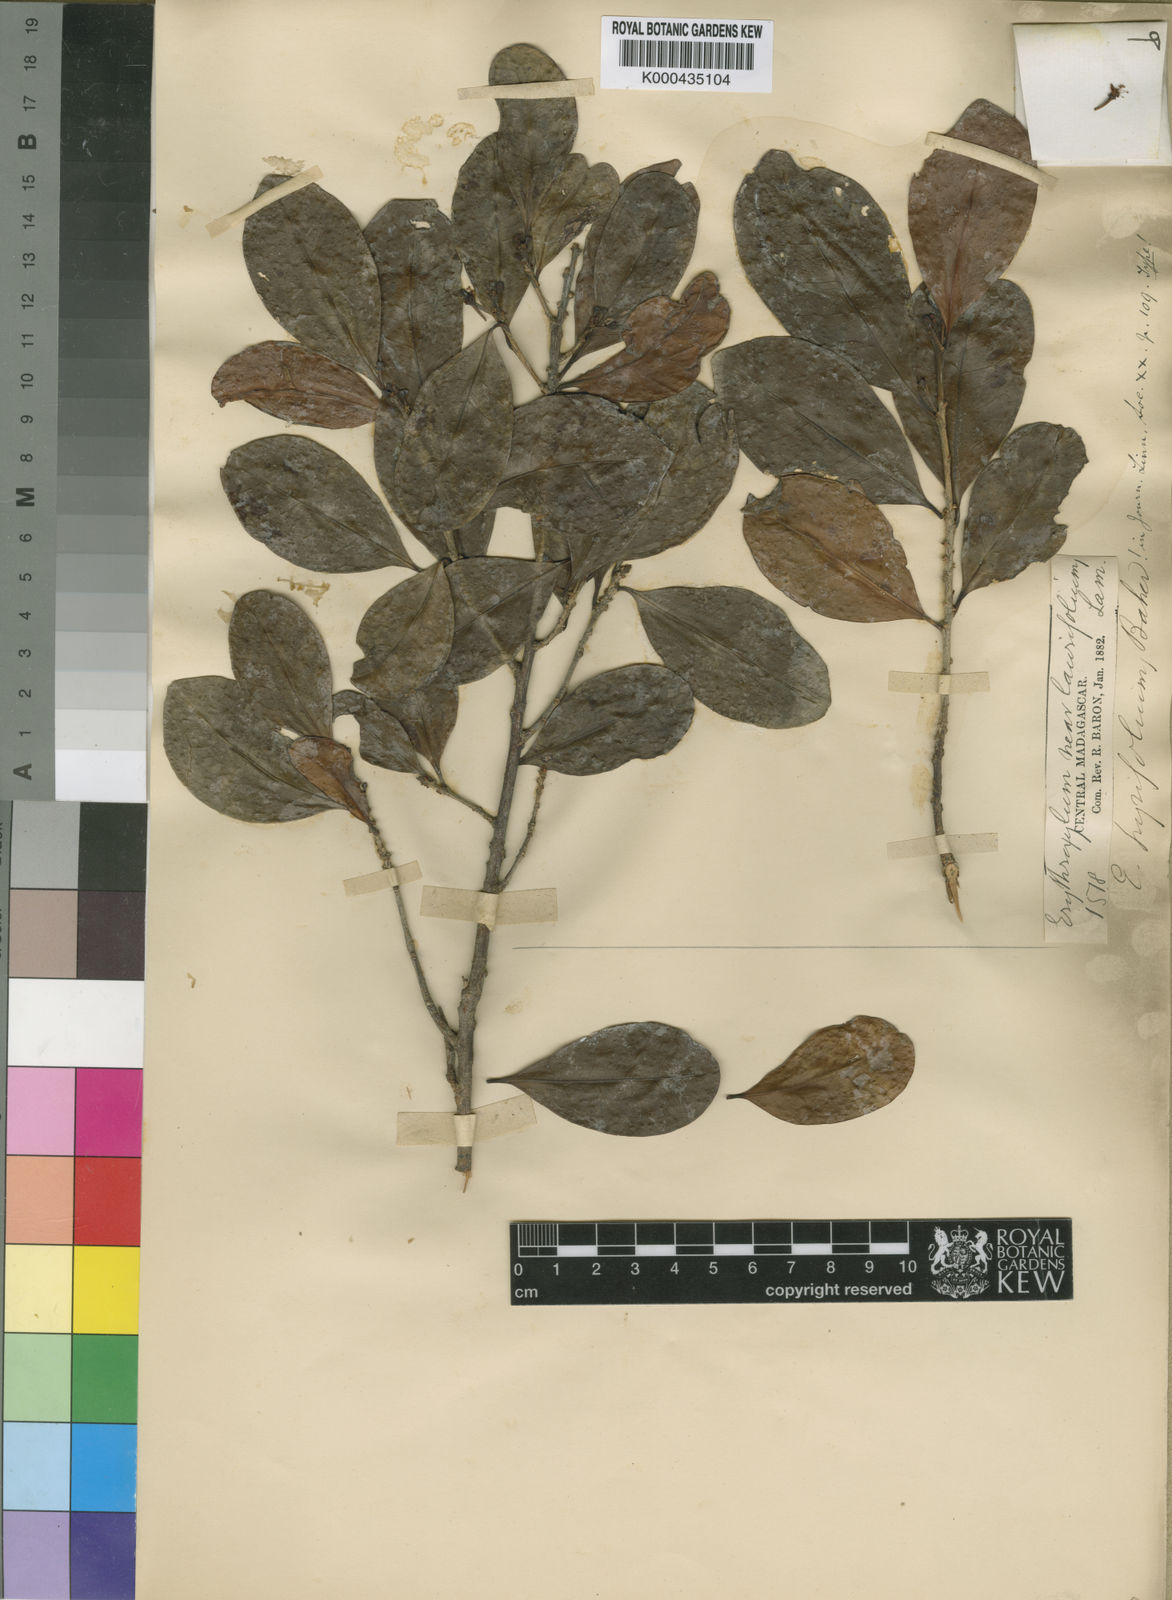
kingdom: Plantae
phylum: Tracheophyta
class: Magnoliopsida
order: Malpighiales
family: Erythroxylaceae
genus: Erythroxylum
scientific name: Erythroxylum pyrifolium
